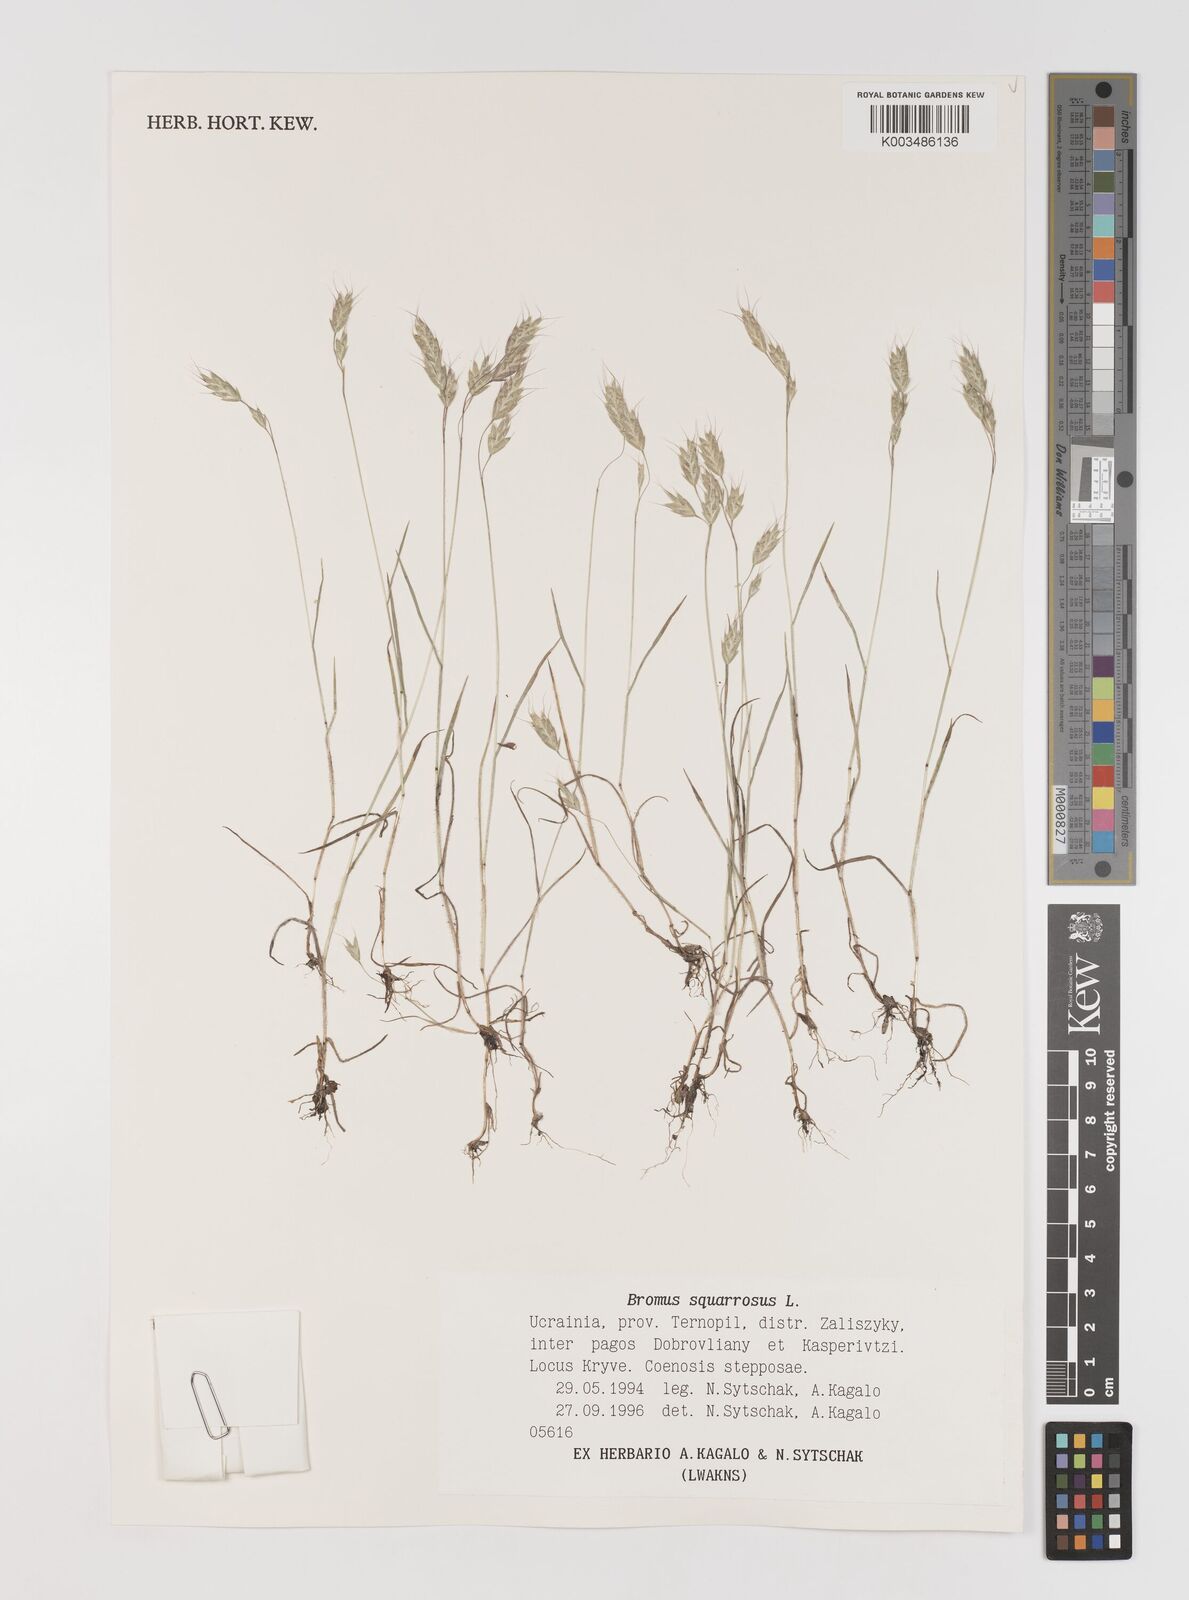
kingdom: Plantae
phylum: Tracheophyta
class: Liliopsida
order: Poales
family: Poaceae
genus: Bromus
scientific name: Bromus squarrosus
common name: Corn brome
